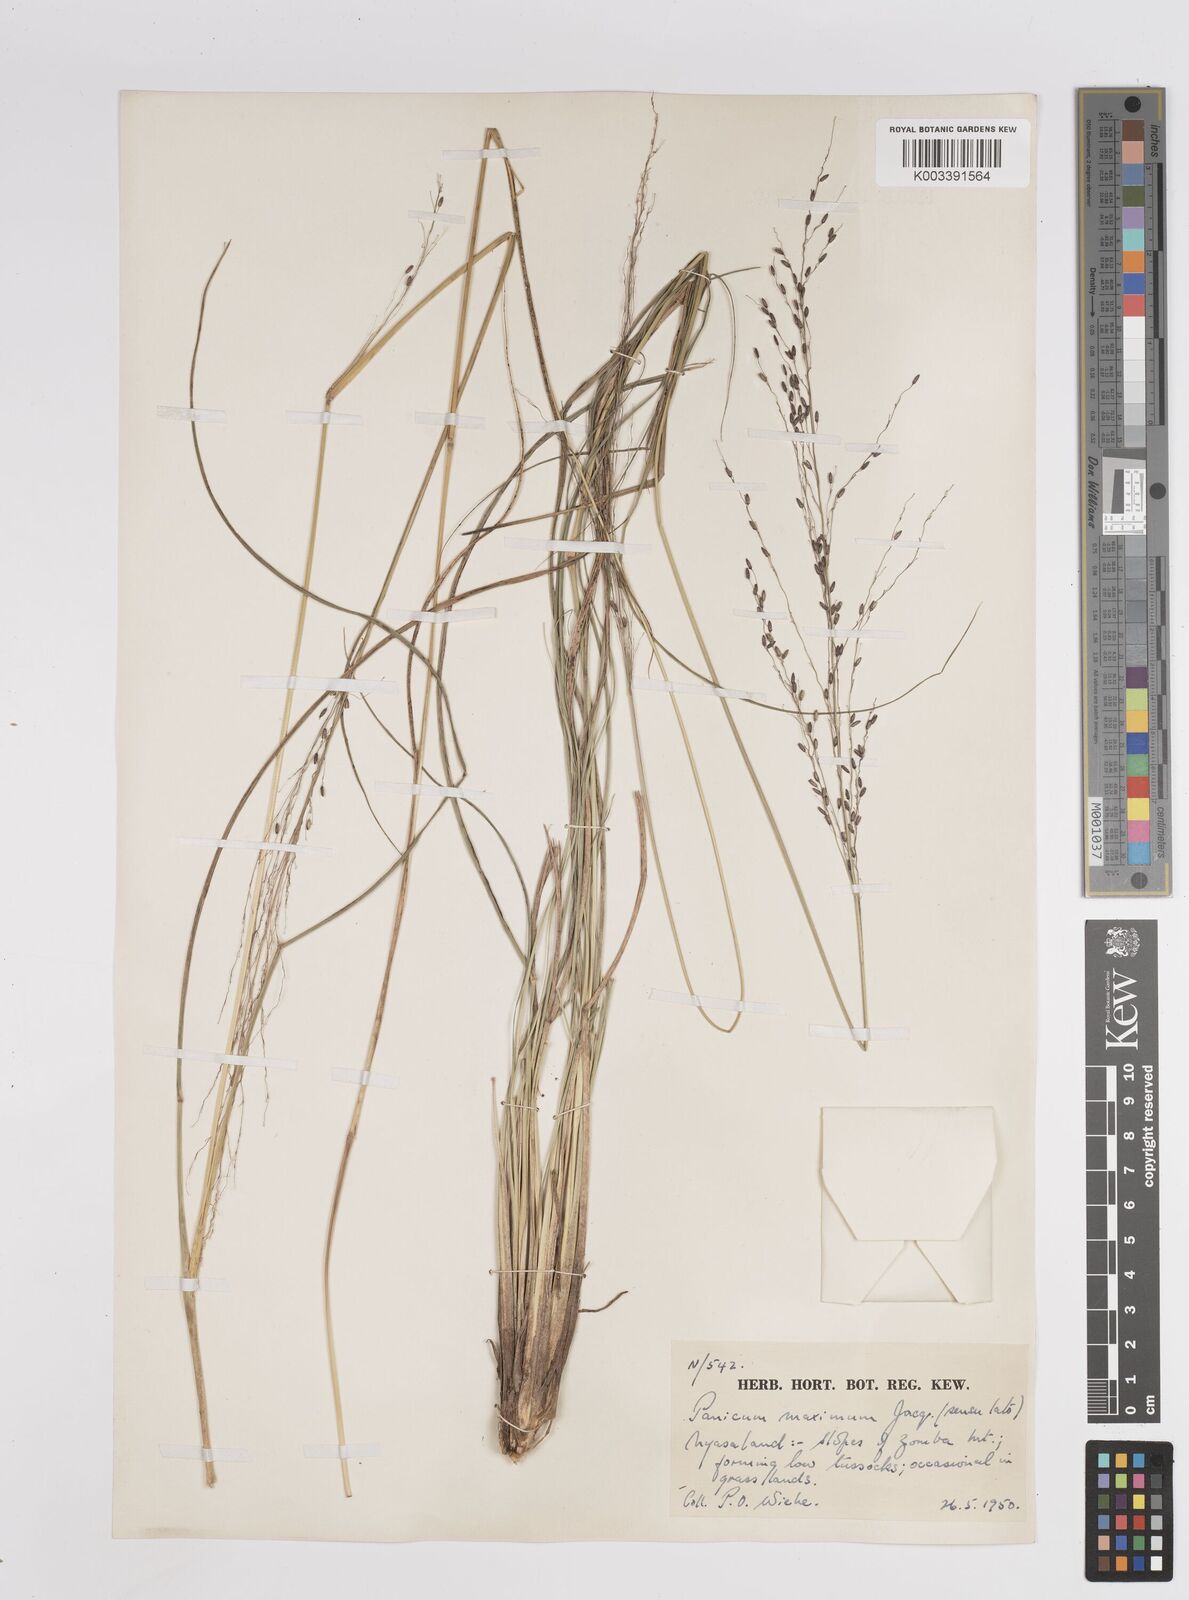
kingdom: Plantae
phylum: Tracheophyta
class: Liliopsida
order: Poales
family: Poaceae
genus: Megathyrsus
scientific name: Megathyrsus maximus
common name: Guineagrass
